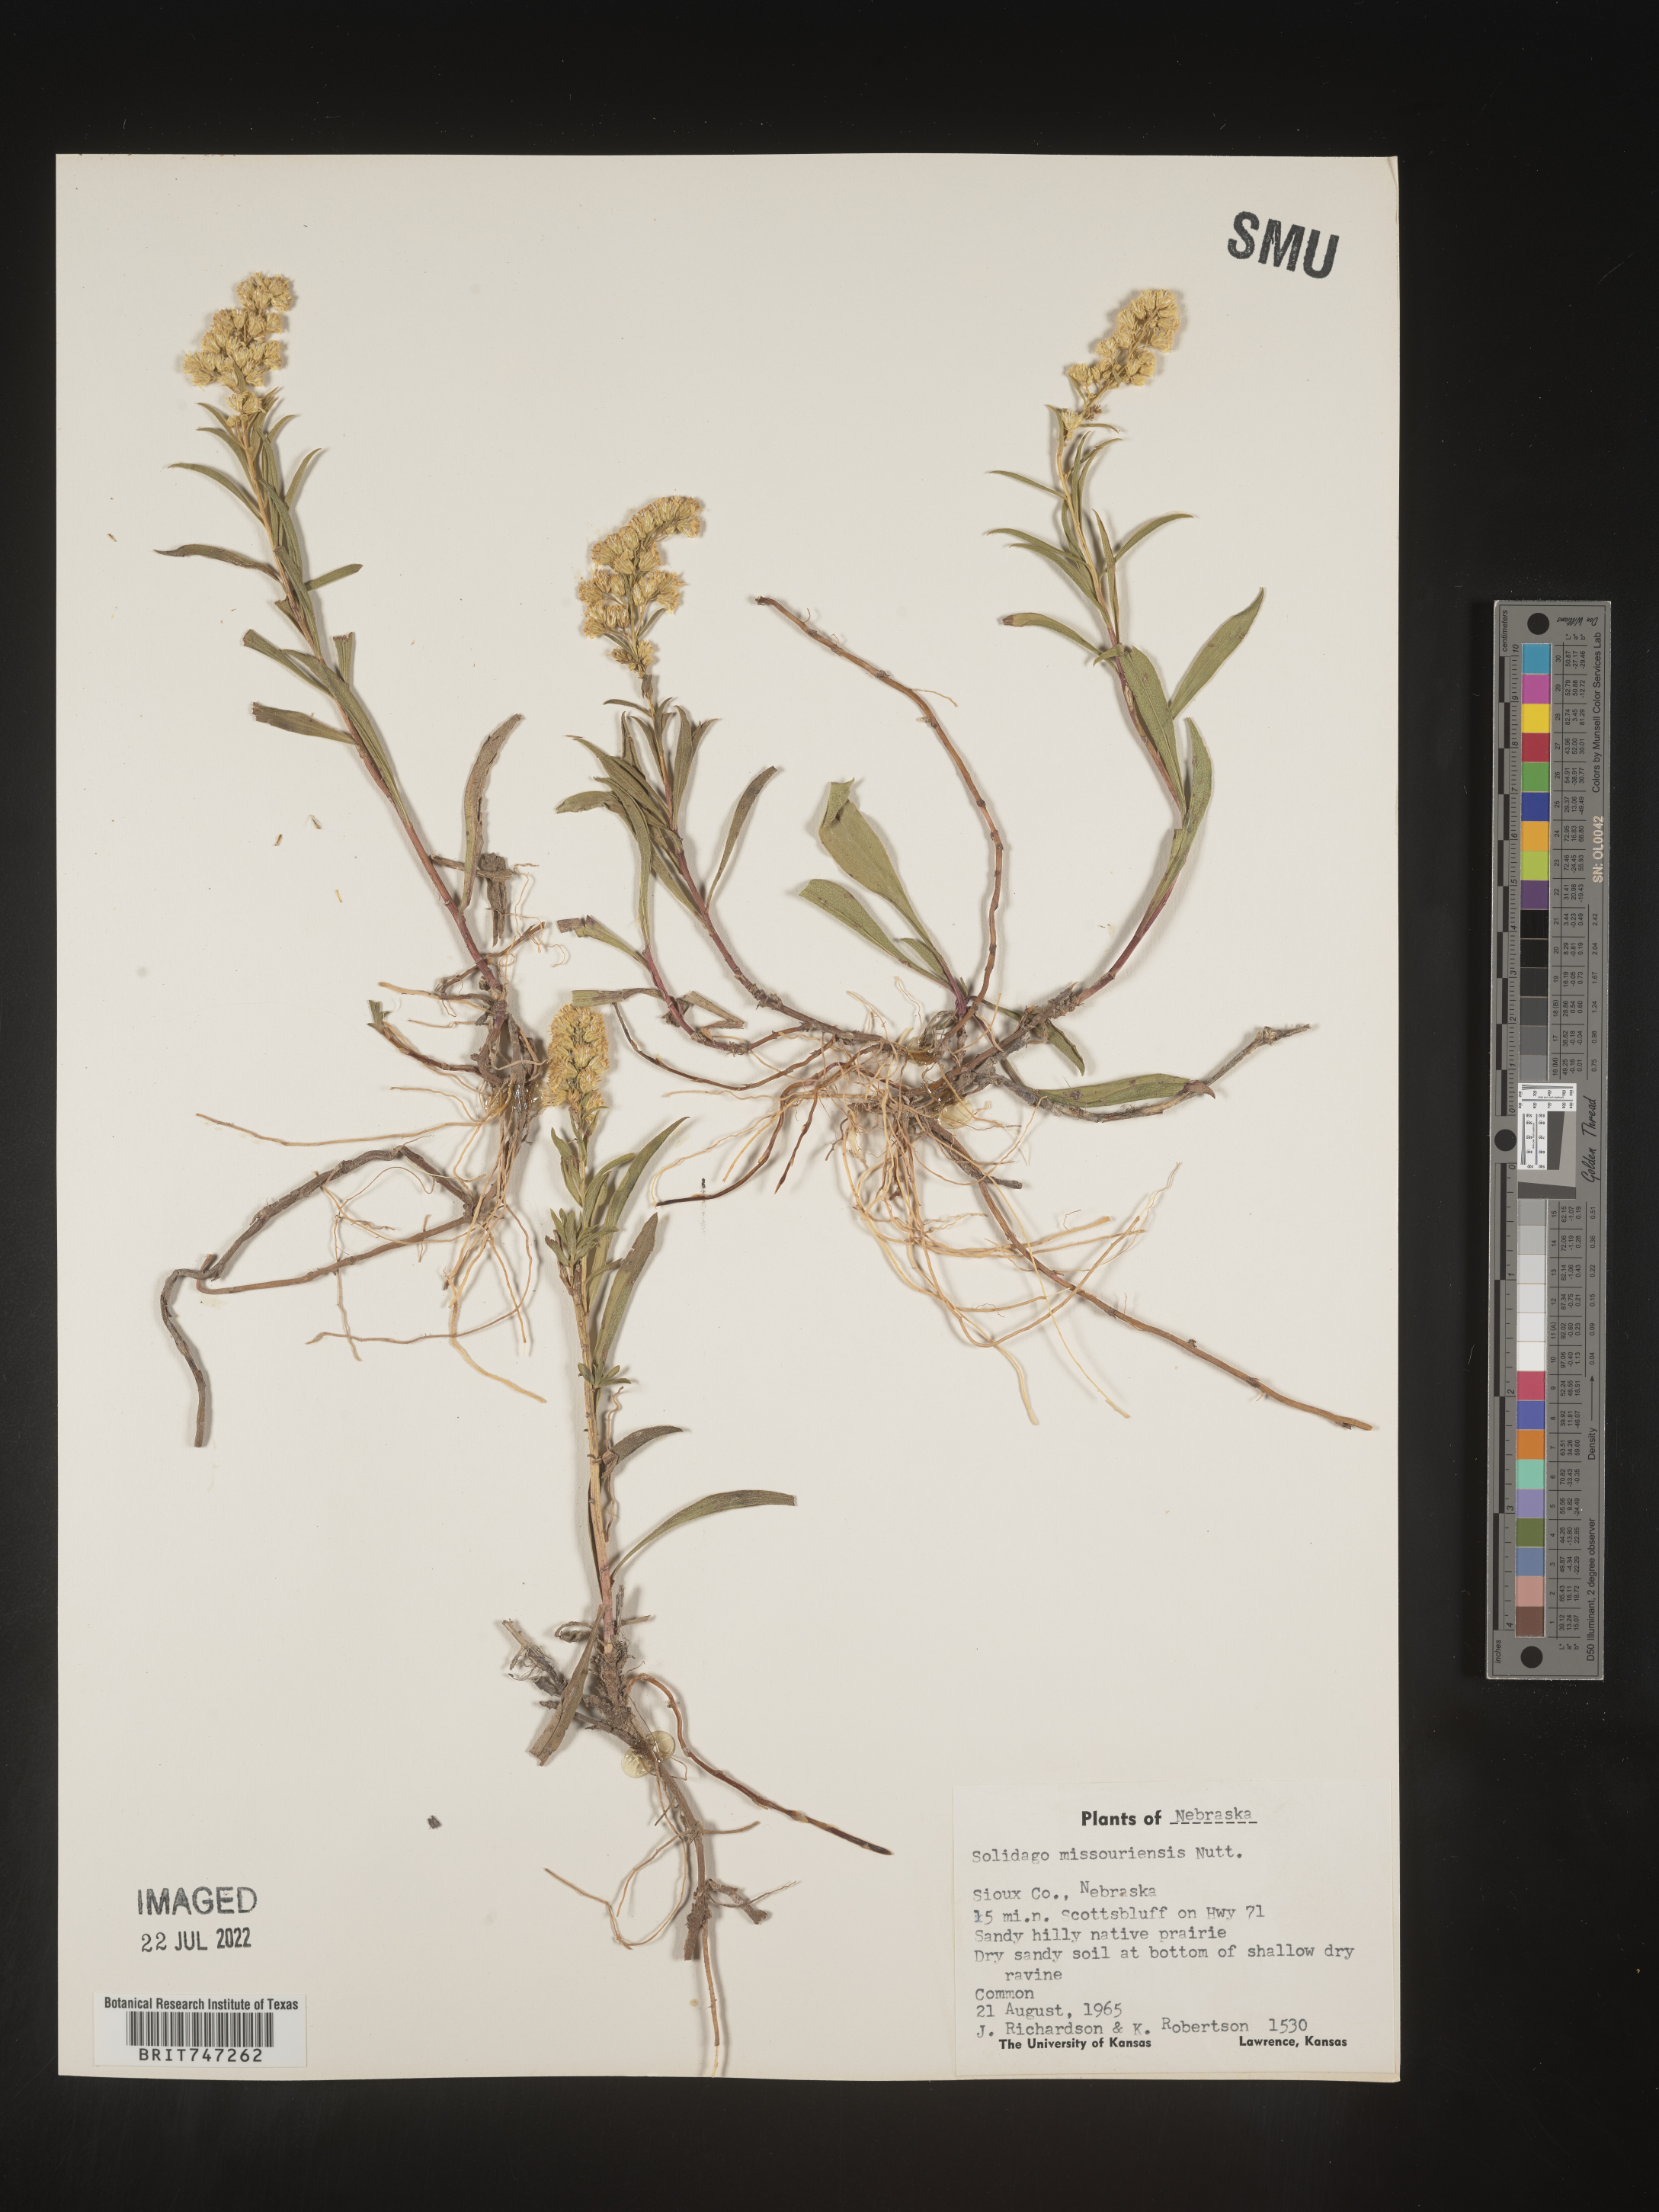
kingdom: Plantae
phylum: Tracheophyta
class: Magnoliopsida
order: Asterales
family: Asteraceae
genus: Solidago
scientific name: Solidago missouriensis
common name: Prairie goldenrod
